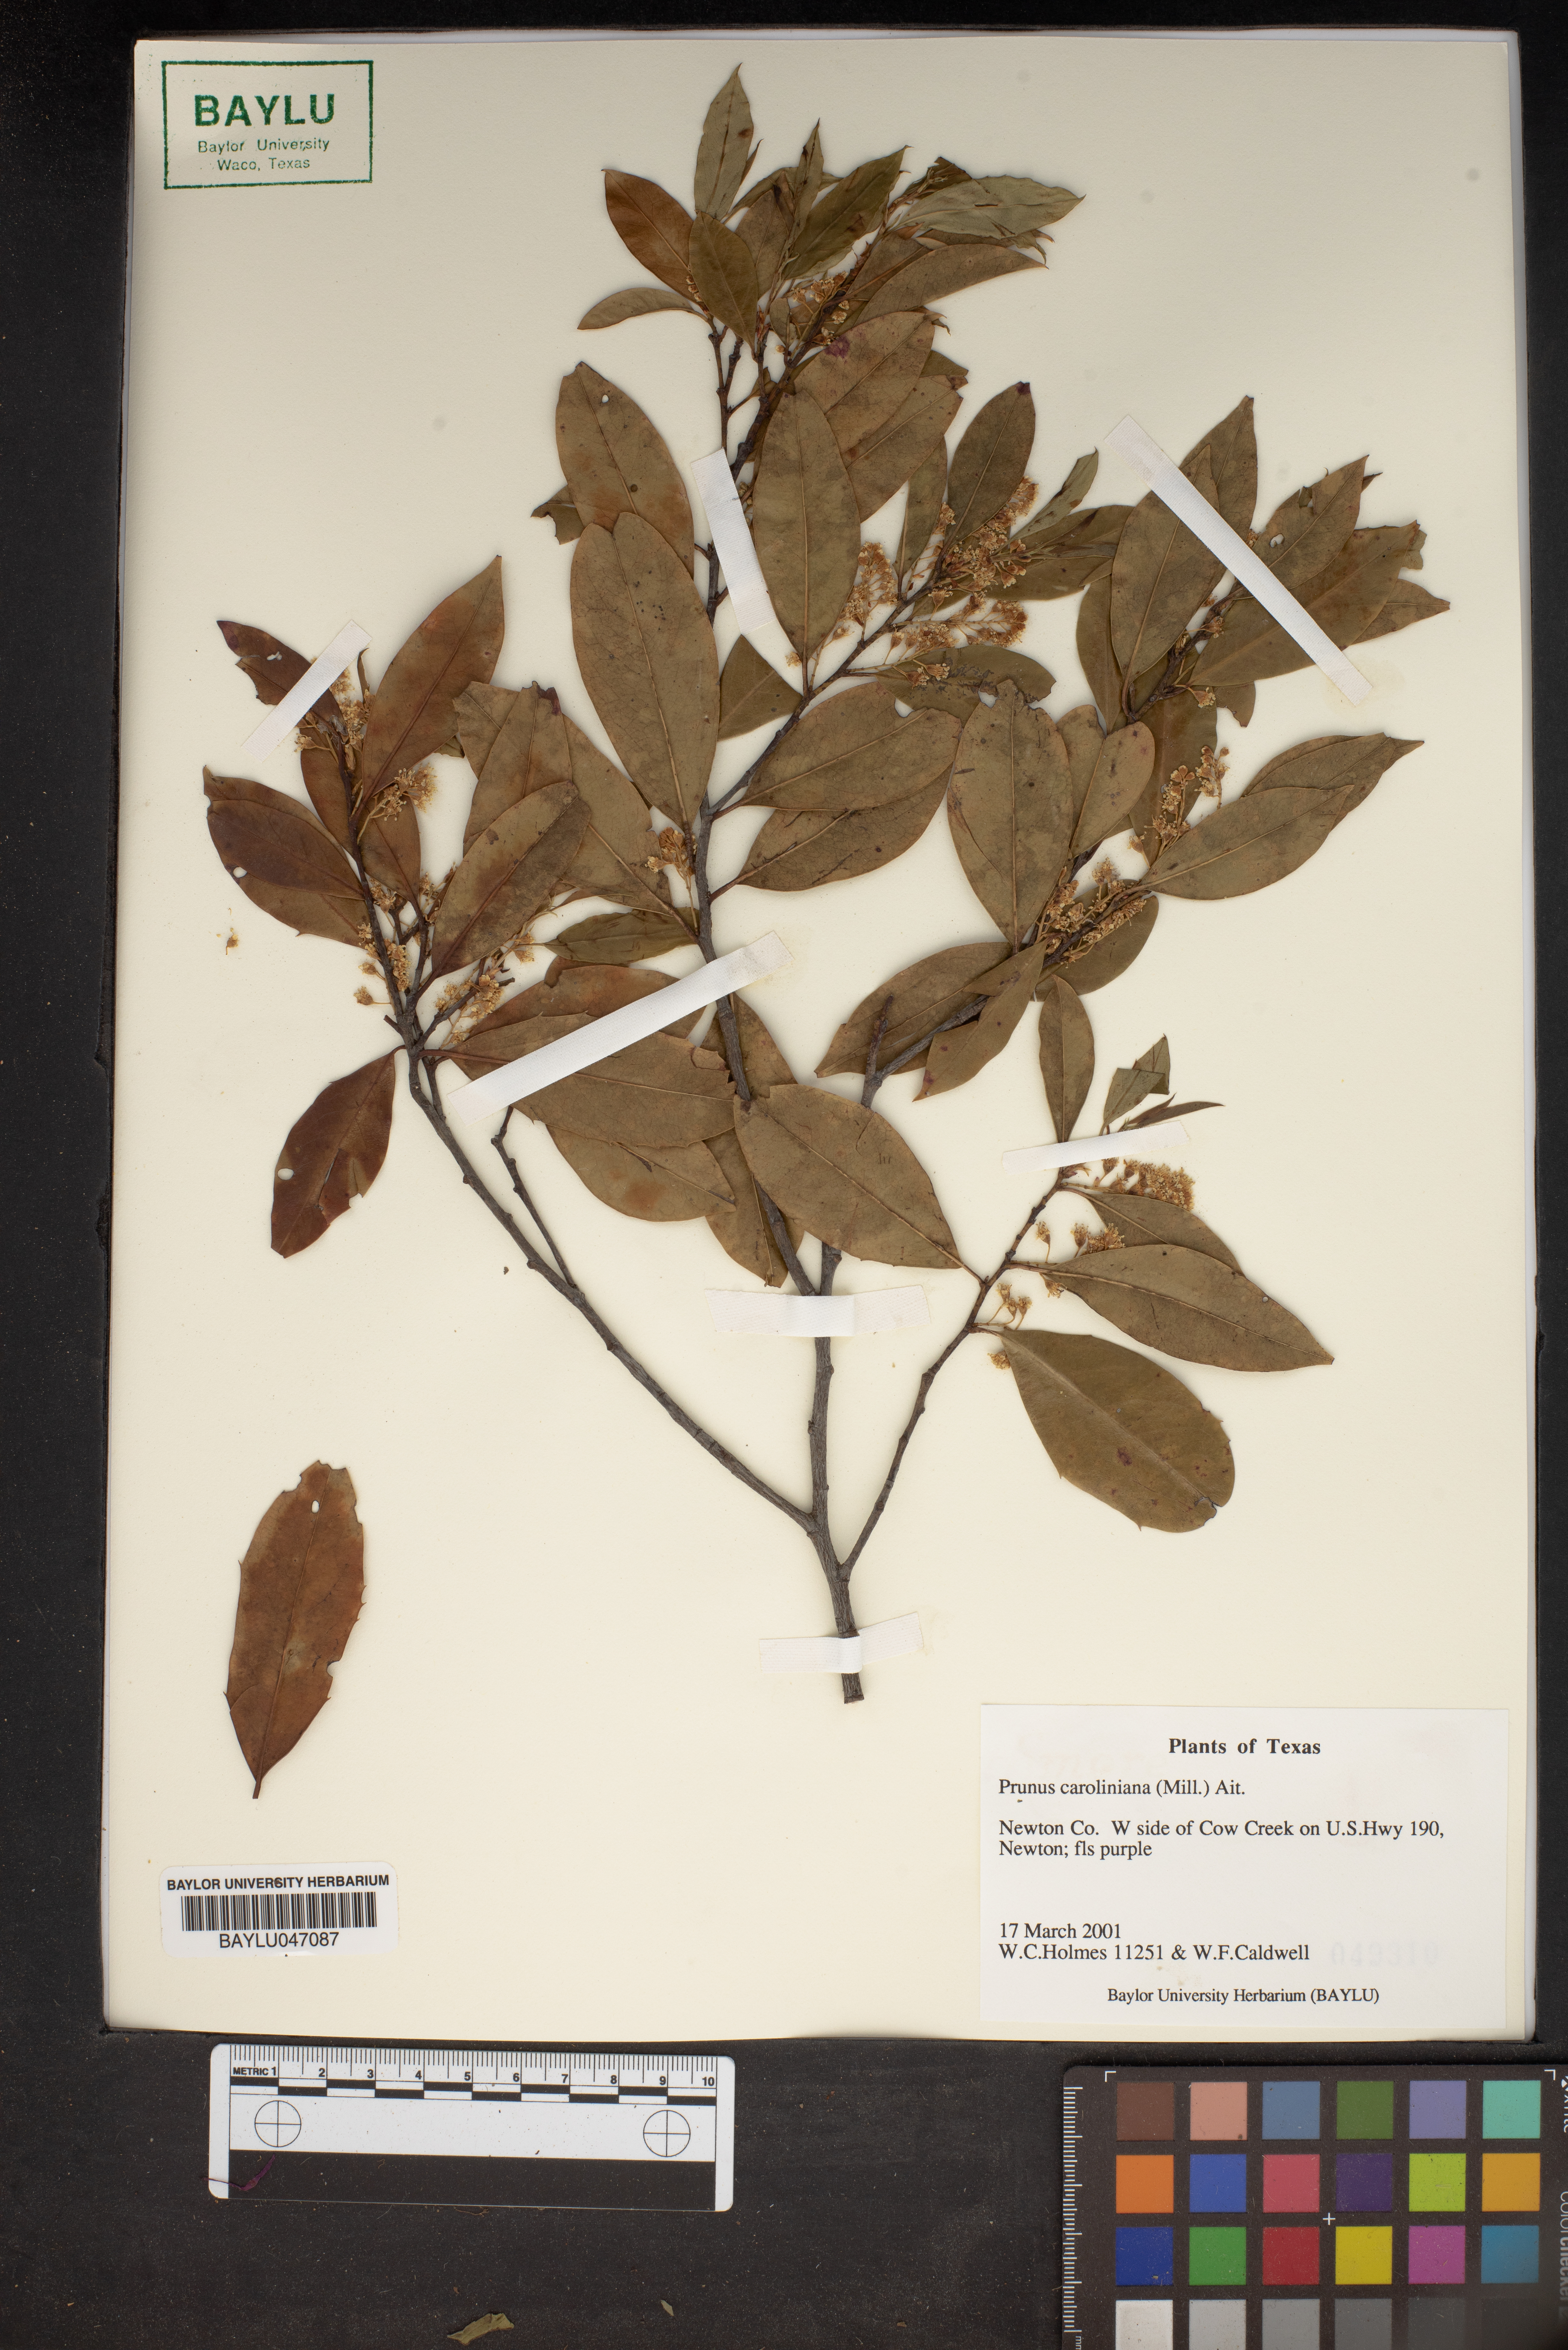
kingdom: Plantae
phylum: Tracheophyta
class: Magnoliopsida
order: Rosales
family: Rosaceae
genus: Prunus
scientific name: Prunus caroliniana
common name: Carolina laurel cherry
